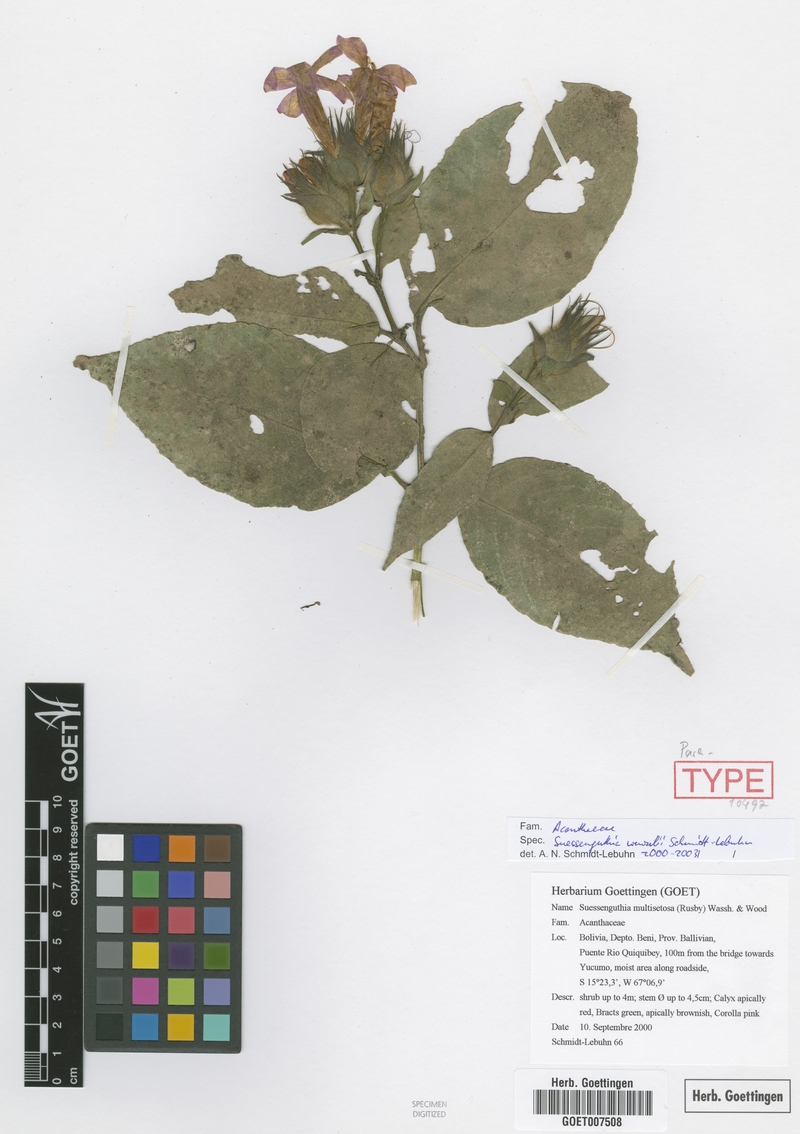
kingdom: Plantae
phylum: Tracheophyta
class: Magnoliopsida
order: Lamiales
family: Acanthaceae
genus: Suessenguthia
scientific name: Suessenguthia wenzelii
